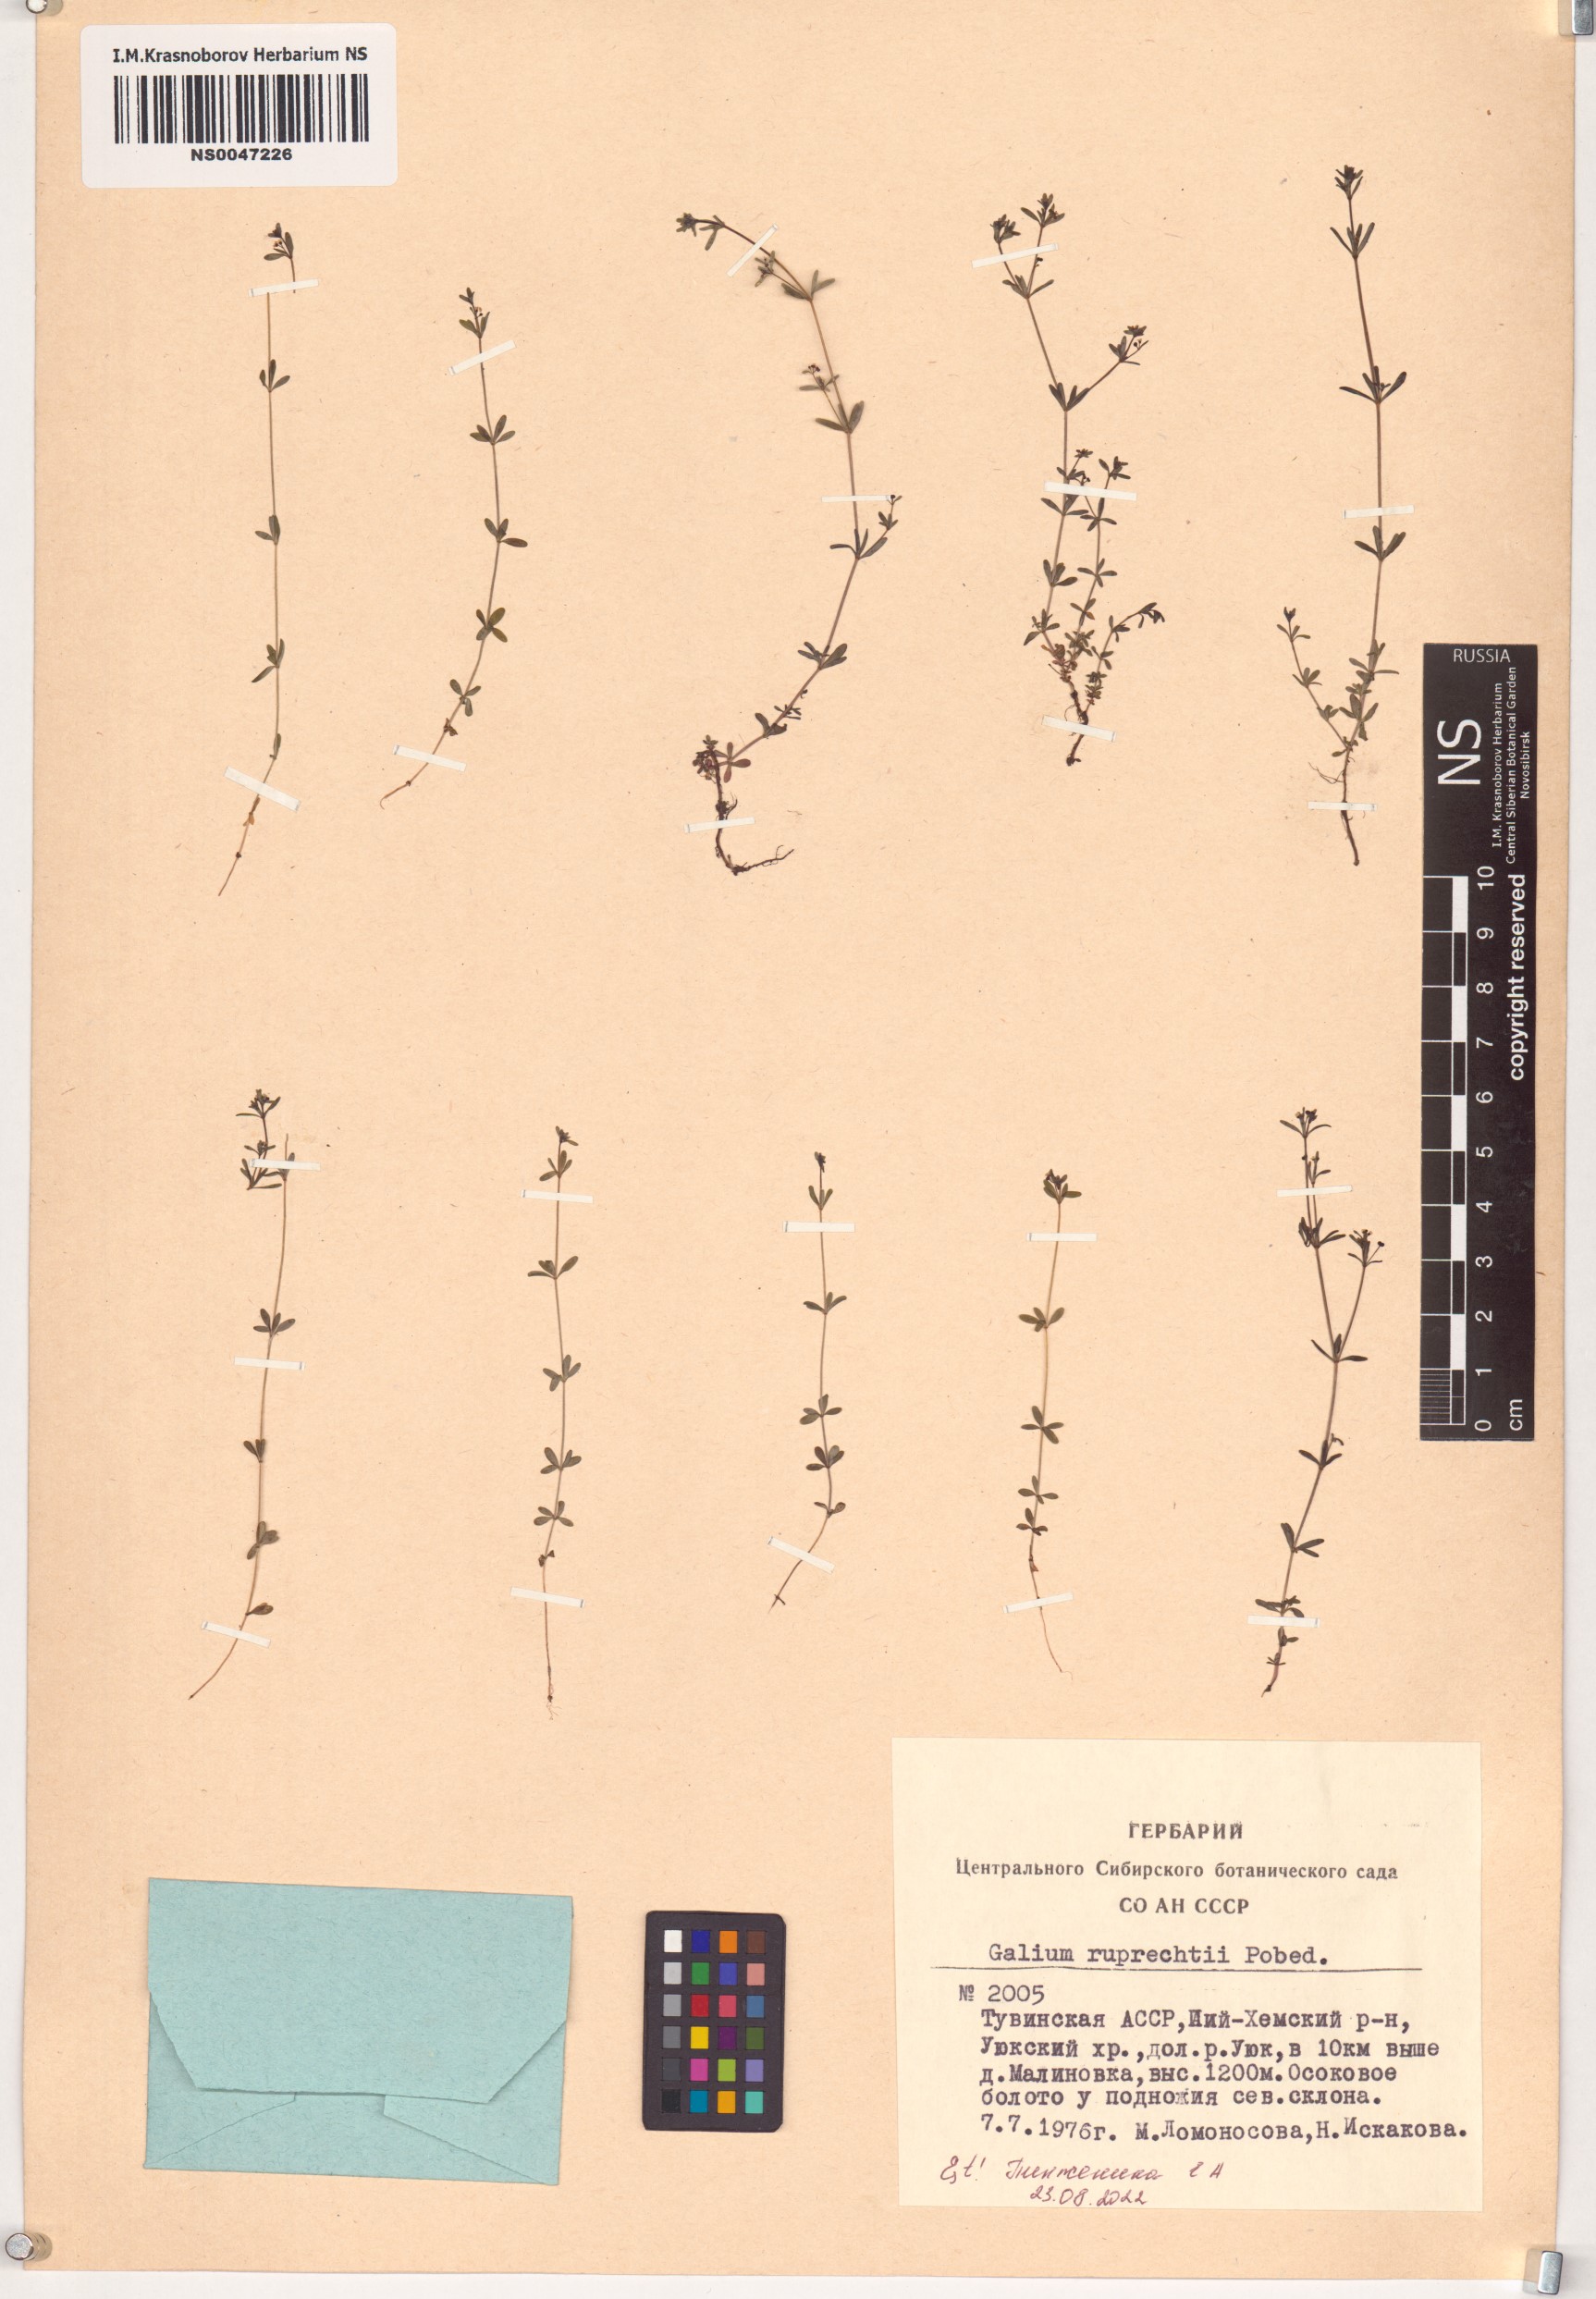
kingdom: Plantae
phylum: Tracheophyta
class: Magnoliopsida
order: Gentianales
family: Rubiaceae
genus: Galium
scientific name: Galium trifidum
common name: Small bedstraw
